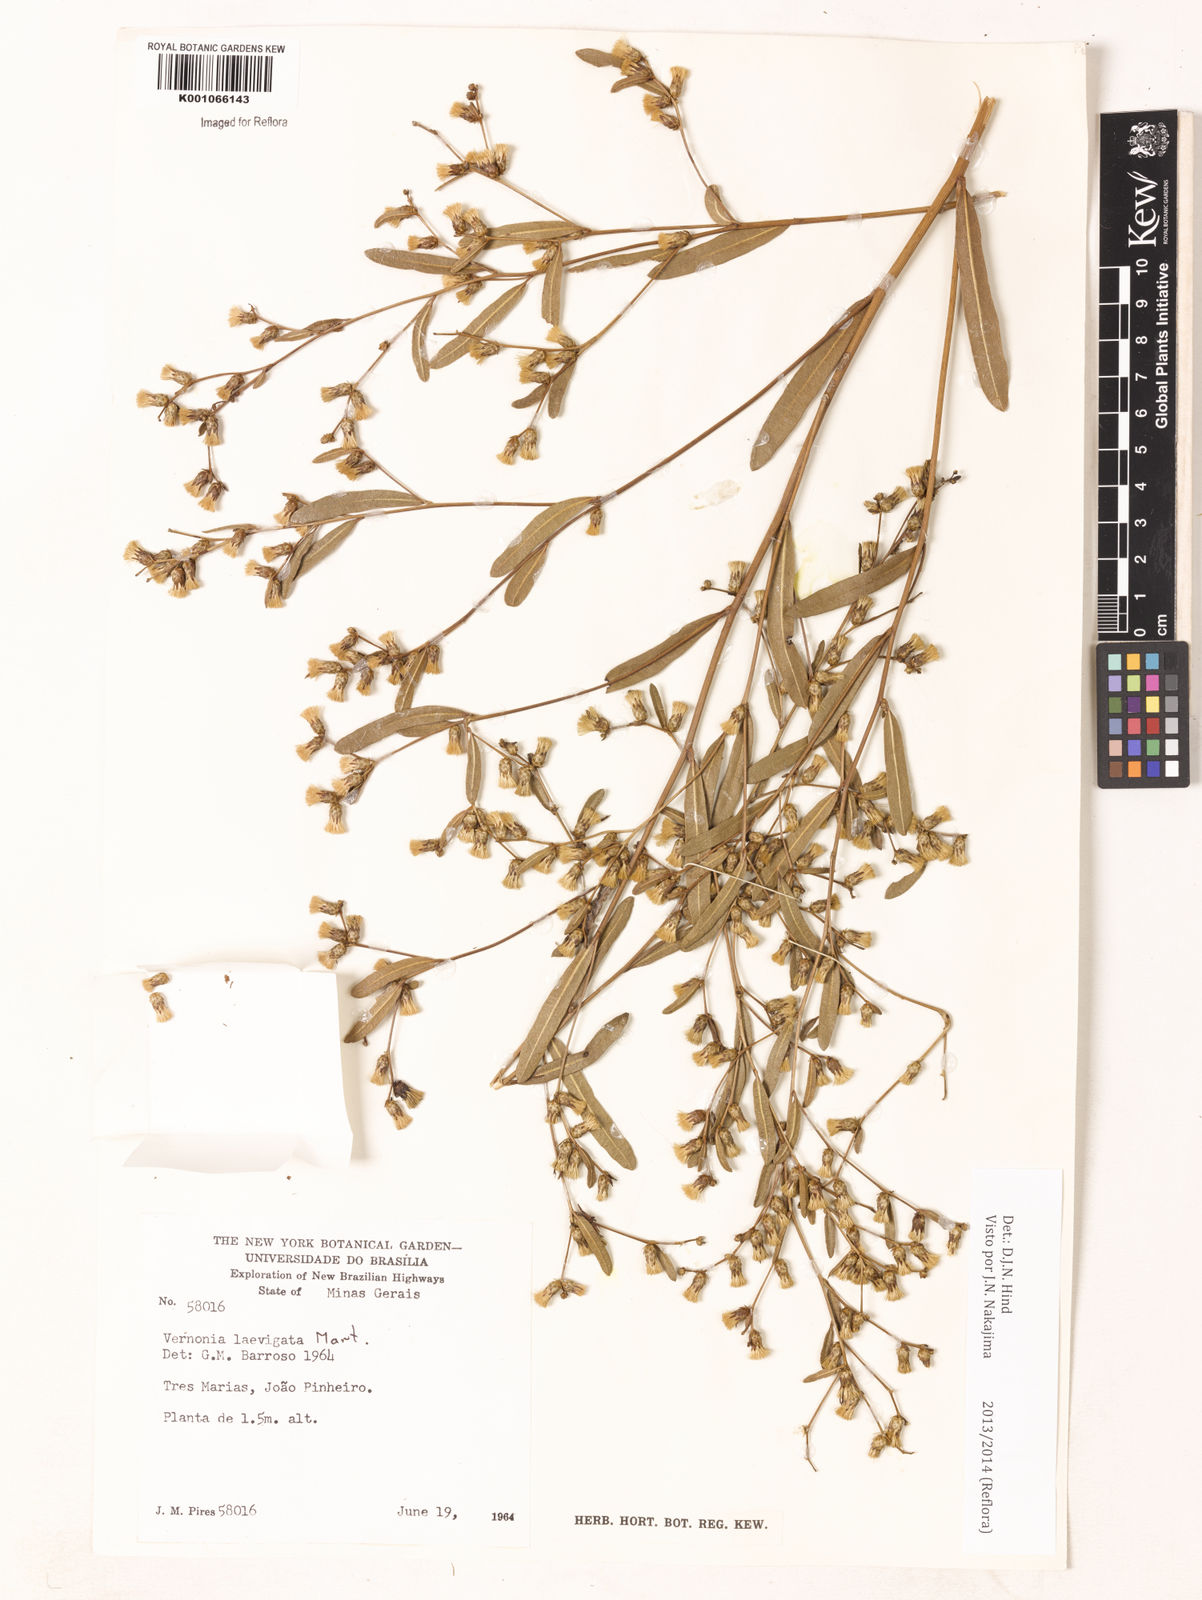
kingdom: Plantae
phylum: Tracheophyta
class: Magnoliopsida
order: Asterales
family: Asteraceae
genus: Lessingianthus
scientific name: Lessingianthus laevigatus
